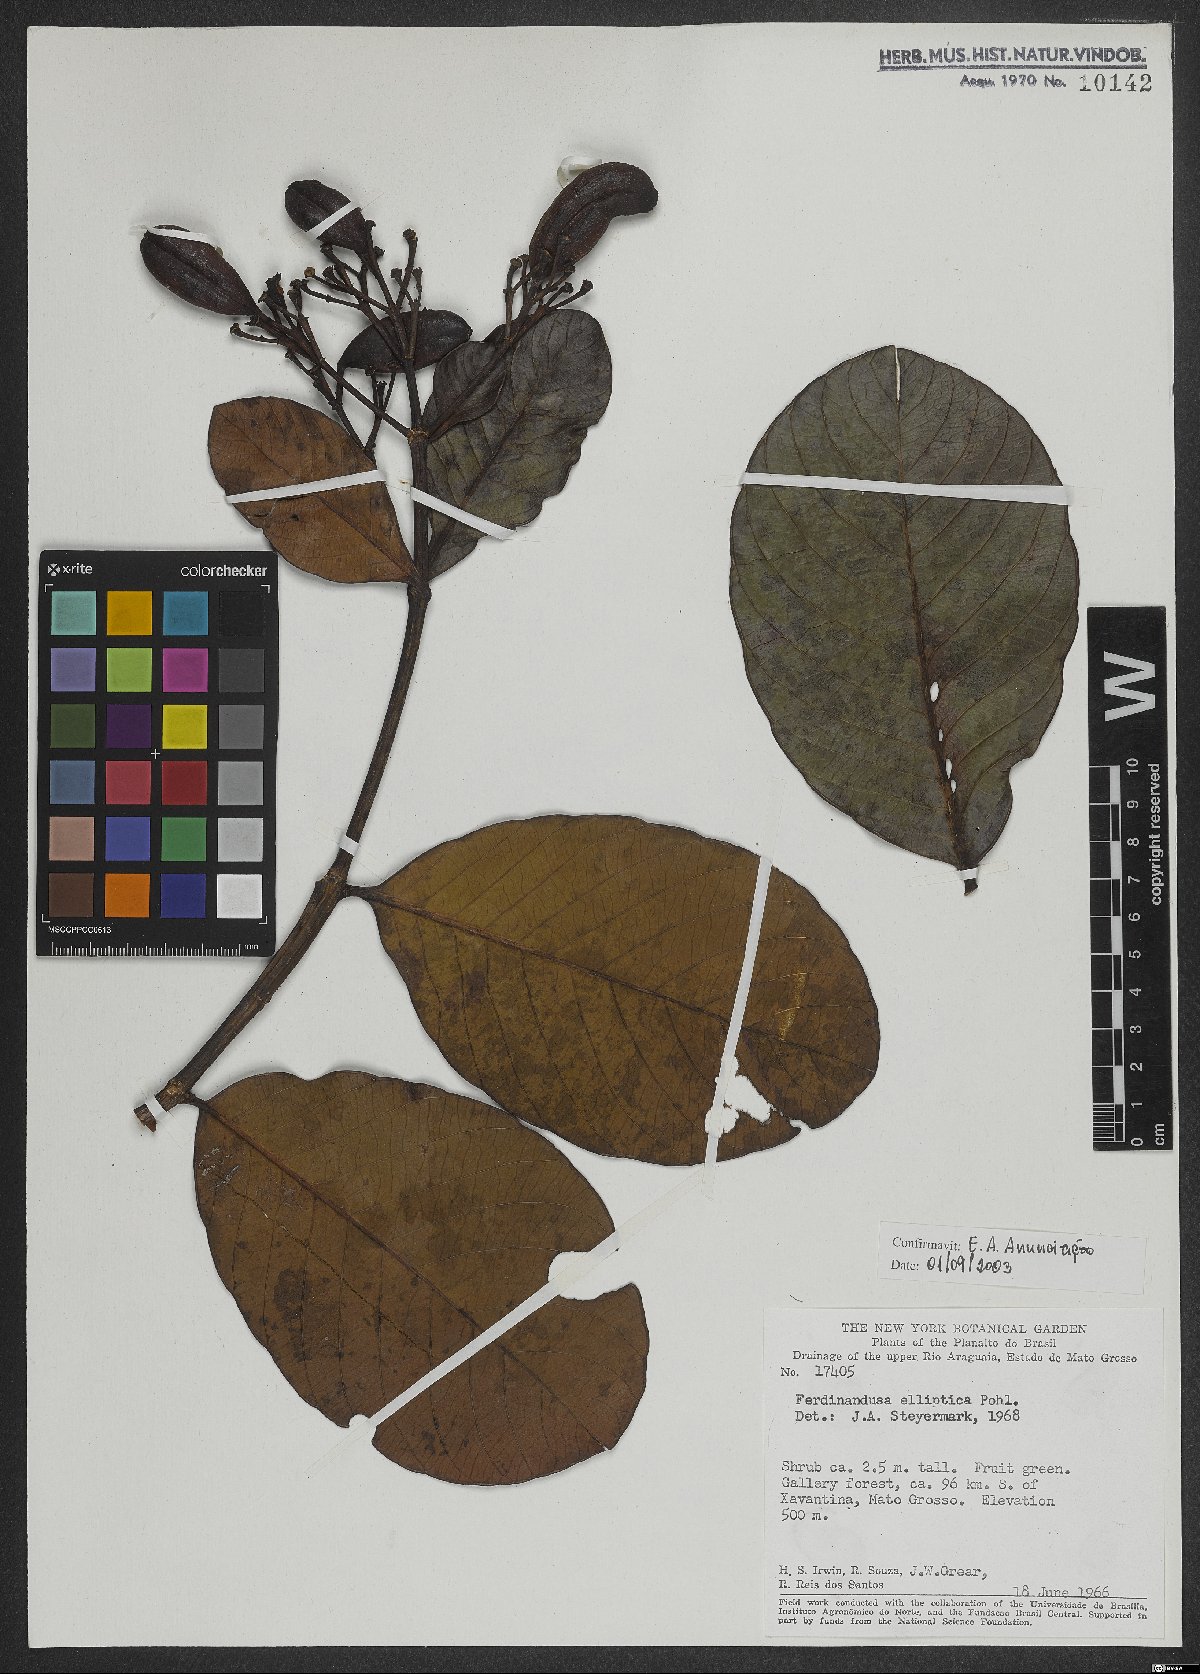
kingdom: Plantae
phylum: Tracheophyta
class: Magnoliopsida
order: Gentianales
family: Rubiaceae
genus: Ferdinandusa
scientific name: Ferdinandusa elliptica
